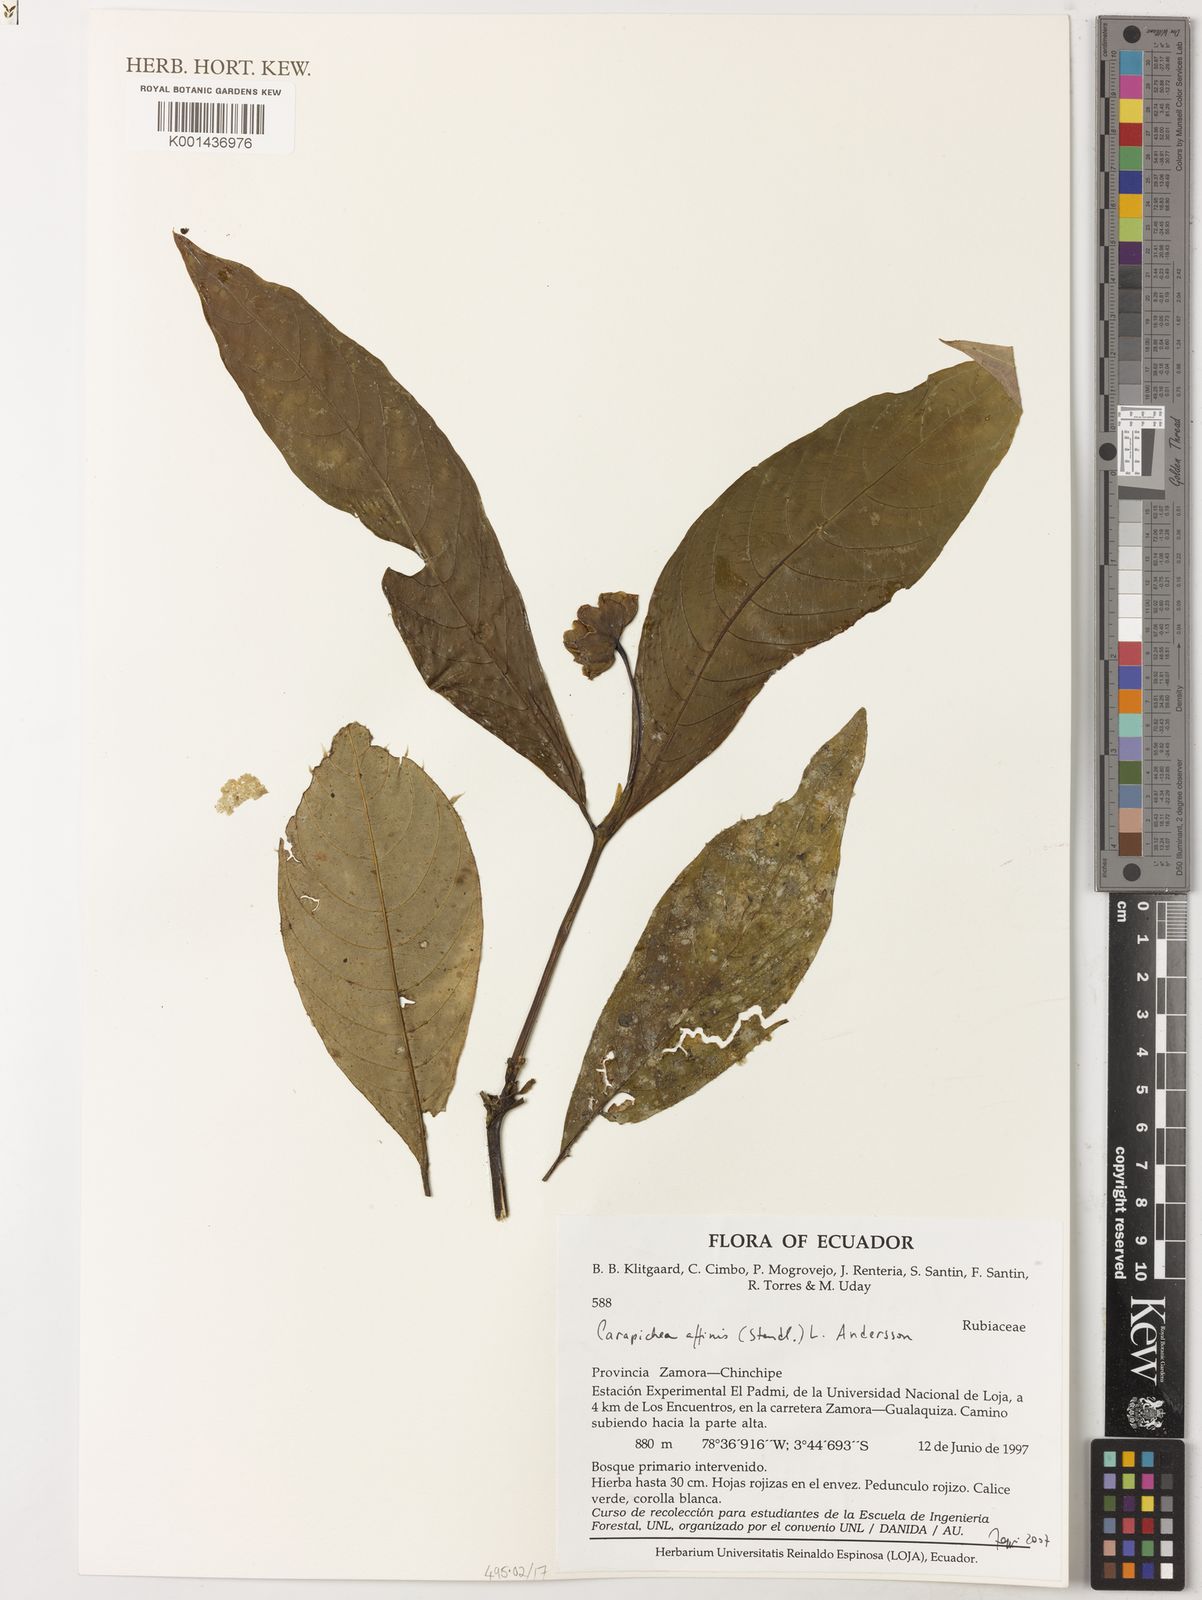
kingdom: Plantae
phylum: Tracheophyta
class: Magnoliopsida
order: Gentianales
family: Rubiaceae
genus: Carapichea
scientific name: Carapichea affinis
